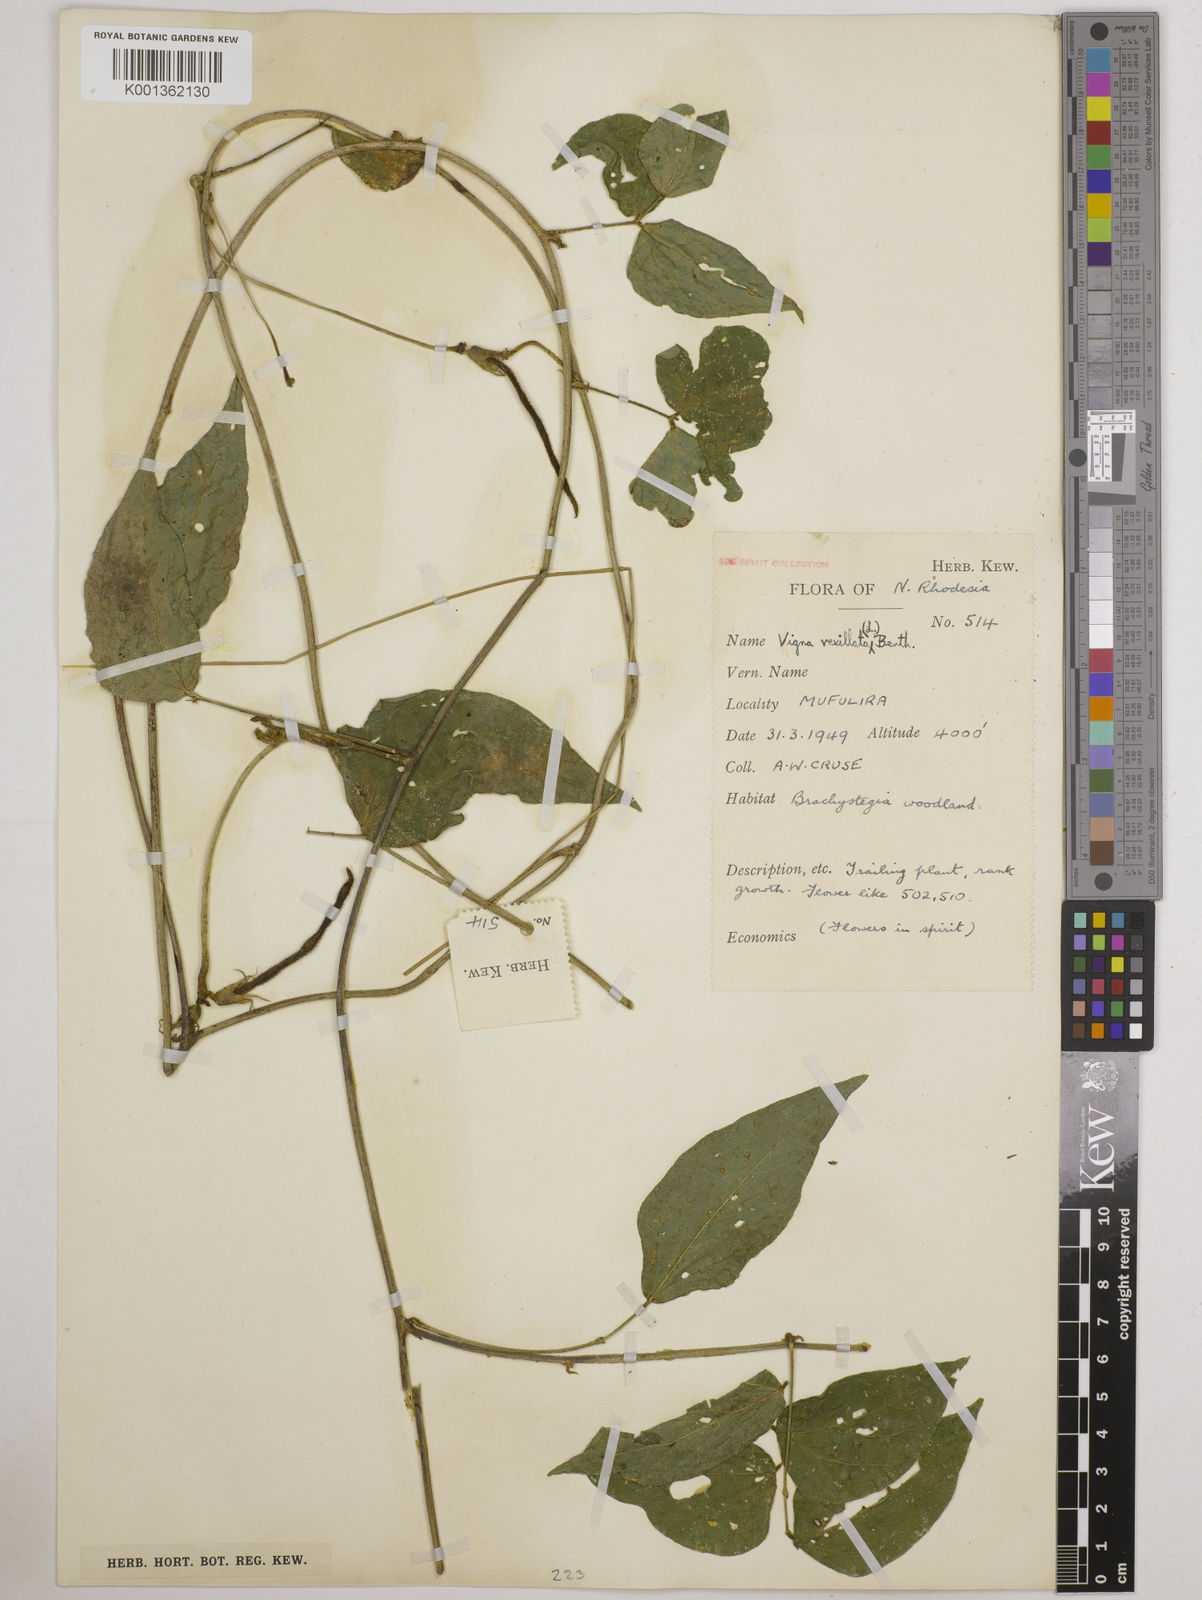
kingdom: Plantae
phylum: Tracheophyta
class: Magnoliopsida
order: Fabales
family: Fabaceae
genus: Vigna
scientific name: Vigna vexillata
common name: Zombi pea
